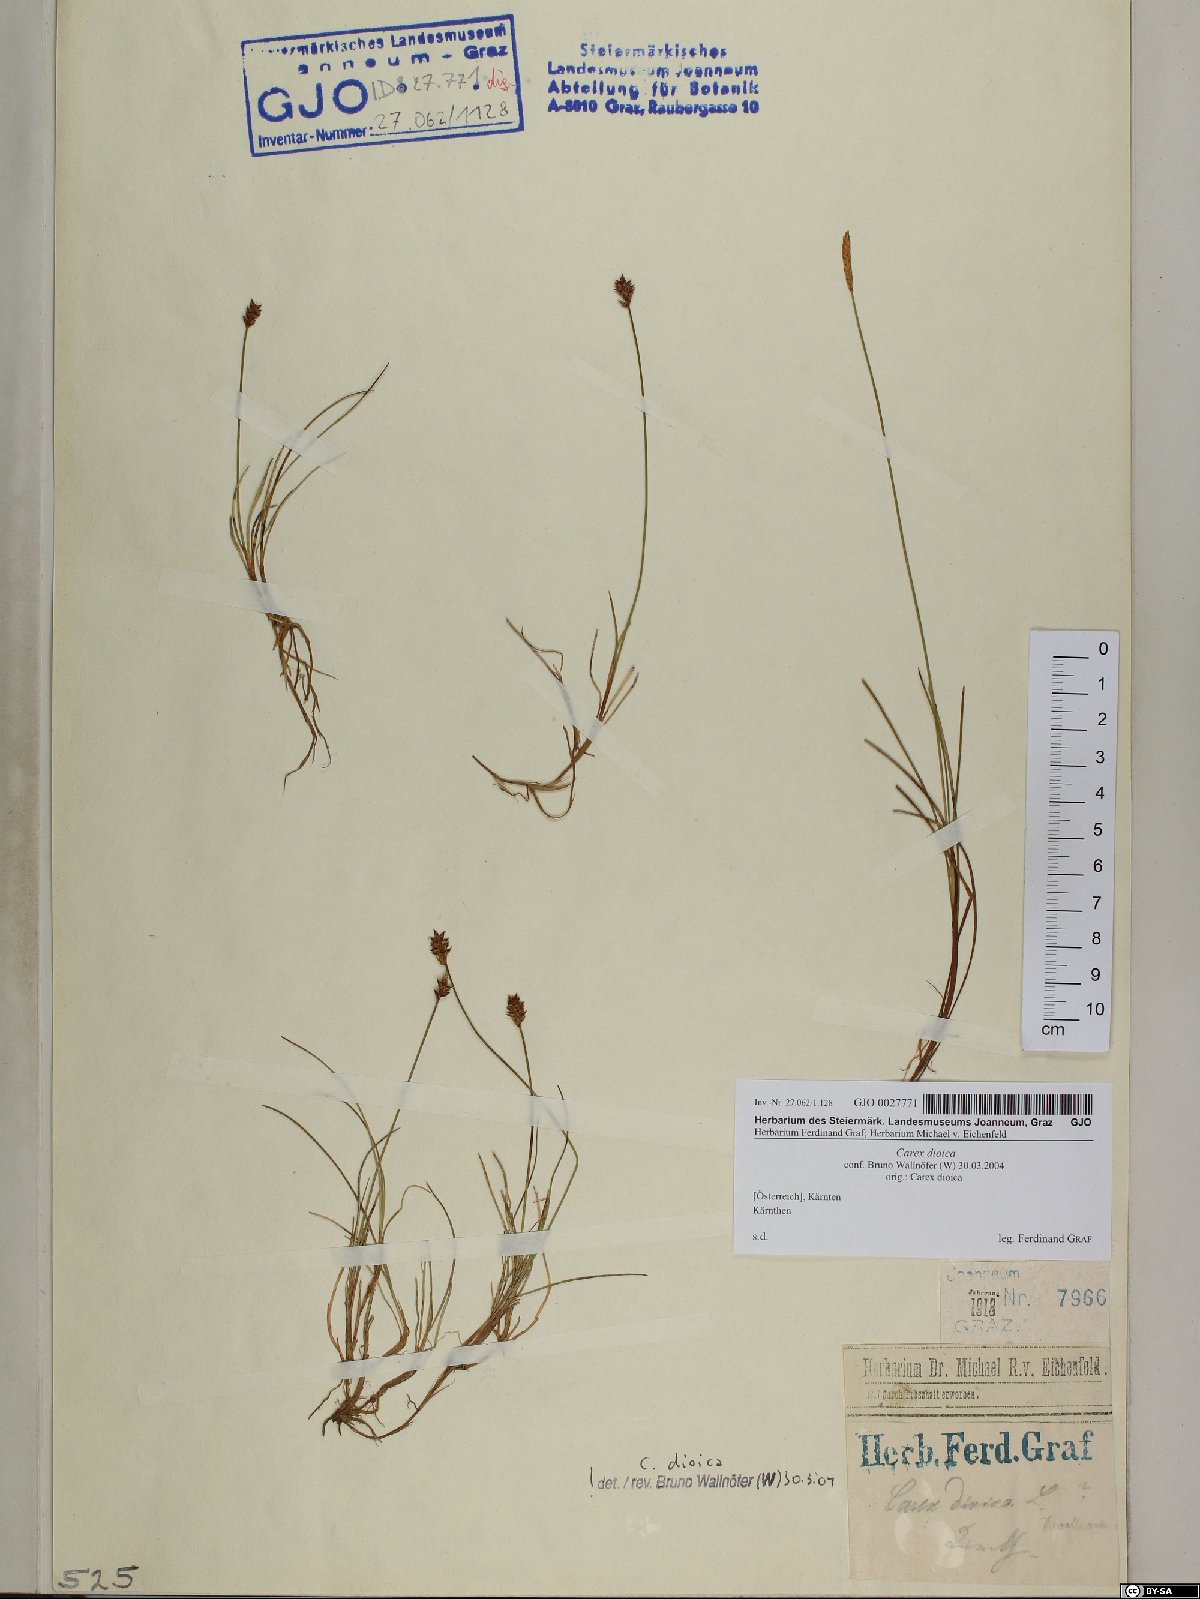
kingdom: Plantae
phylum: Tracheophyta
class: Liliopsida
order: Poales
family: Cyperaceae
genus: Carex
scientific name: Carex dioica
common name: Dioecious sedge
